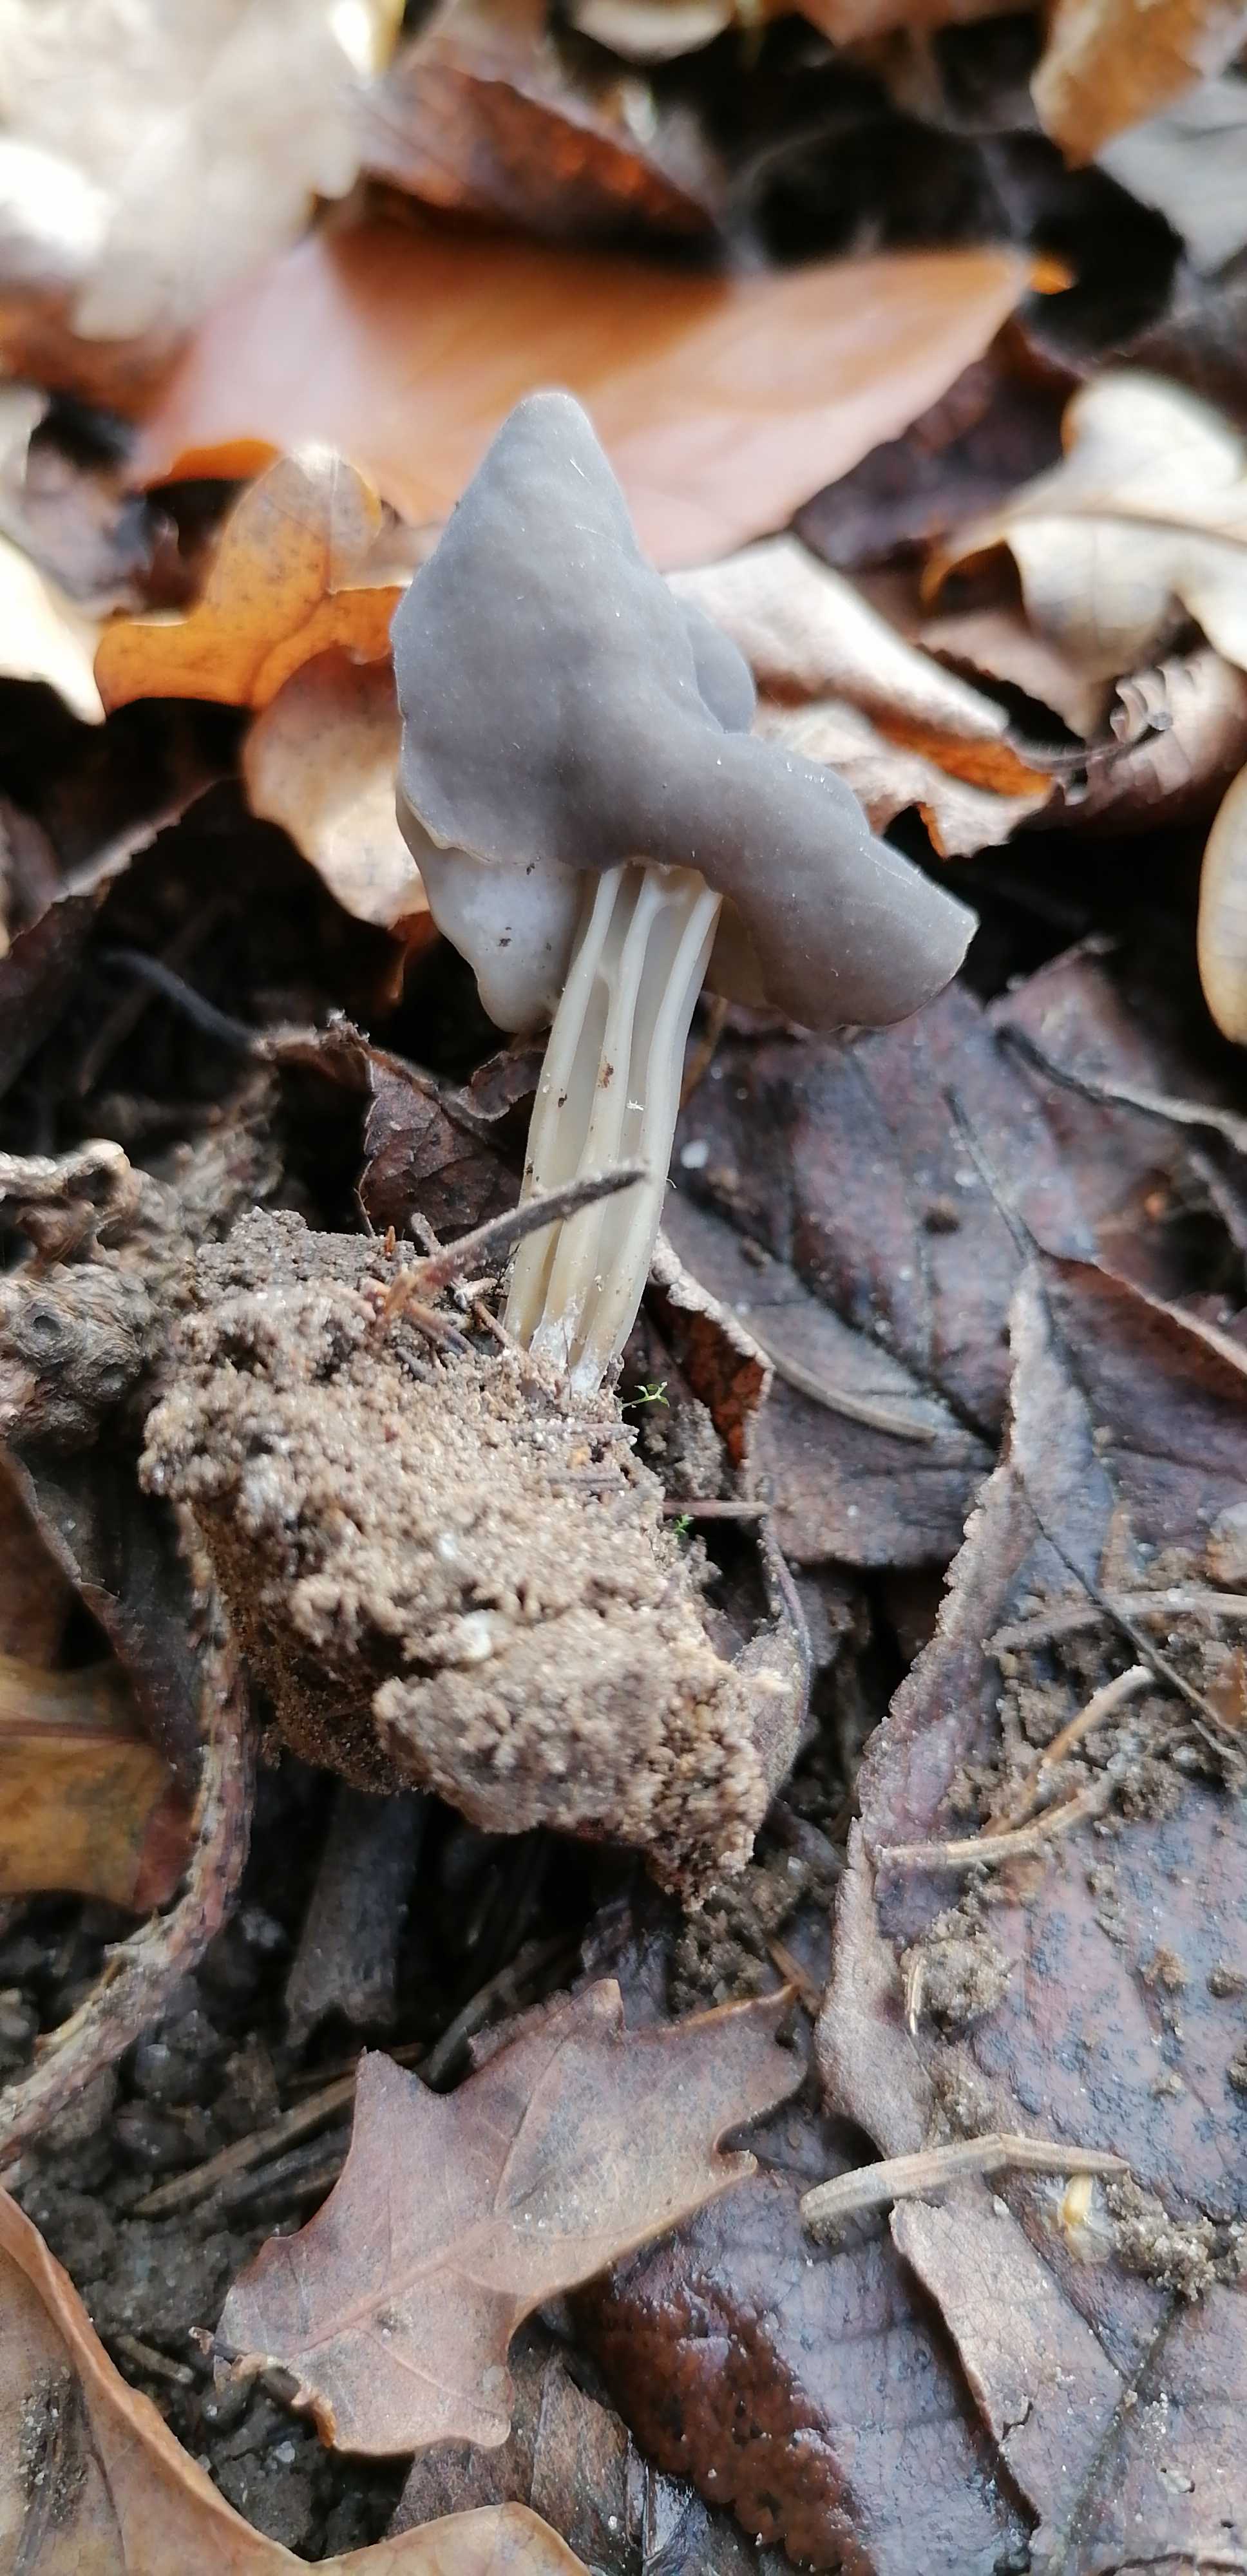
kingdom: Fungi
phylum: Ascomycota
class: Pezizomycetes
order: Pezizales
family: Helvellaceae
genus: Helvella
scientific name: Helvella lacunosa
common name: grubet foldhat
